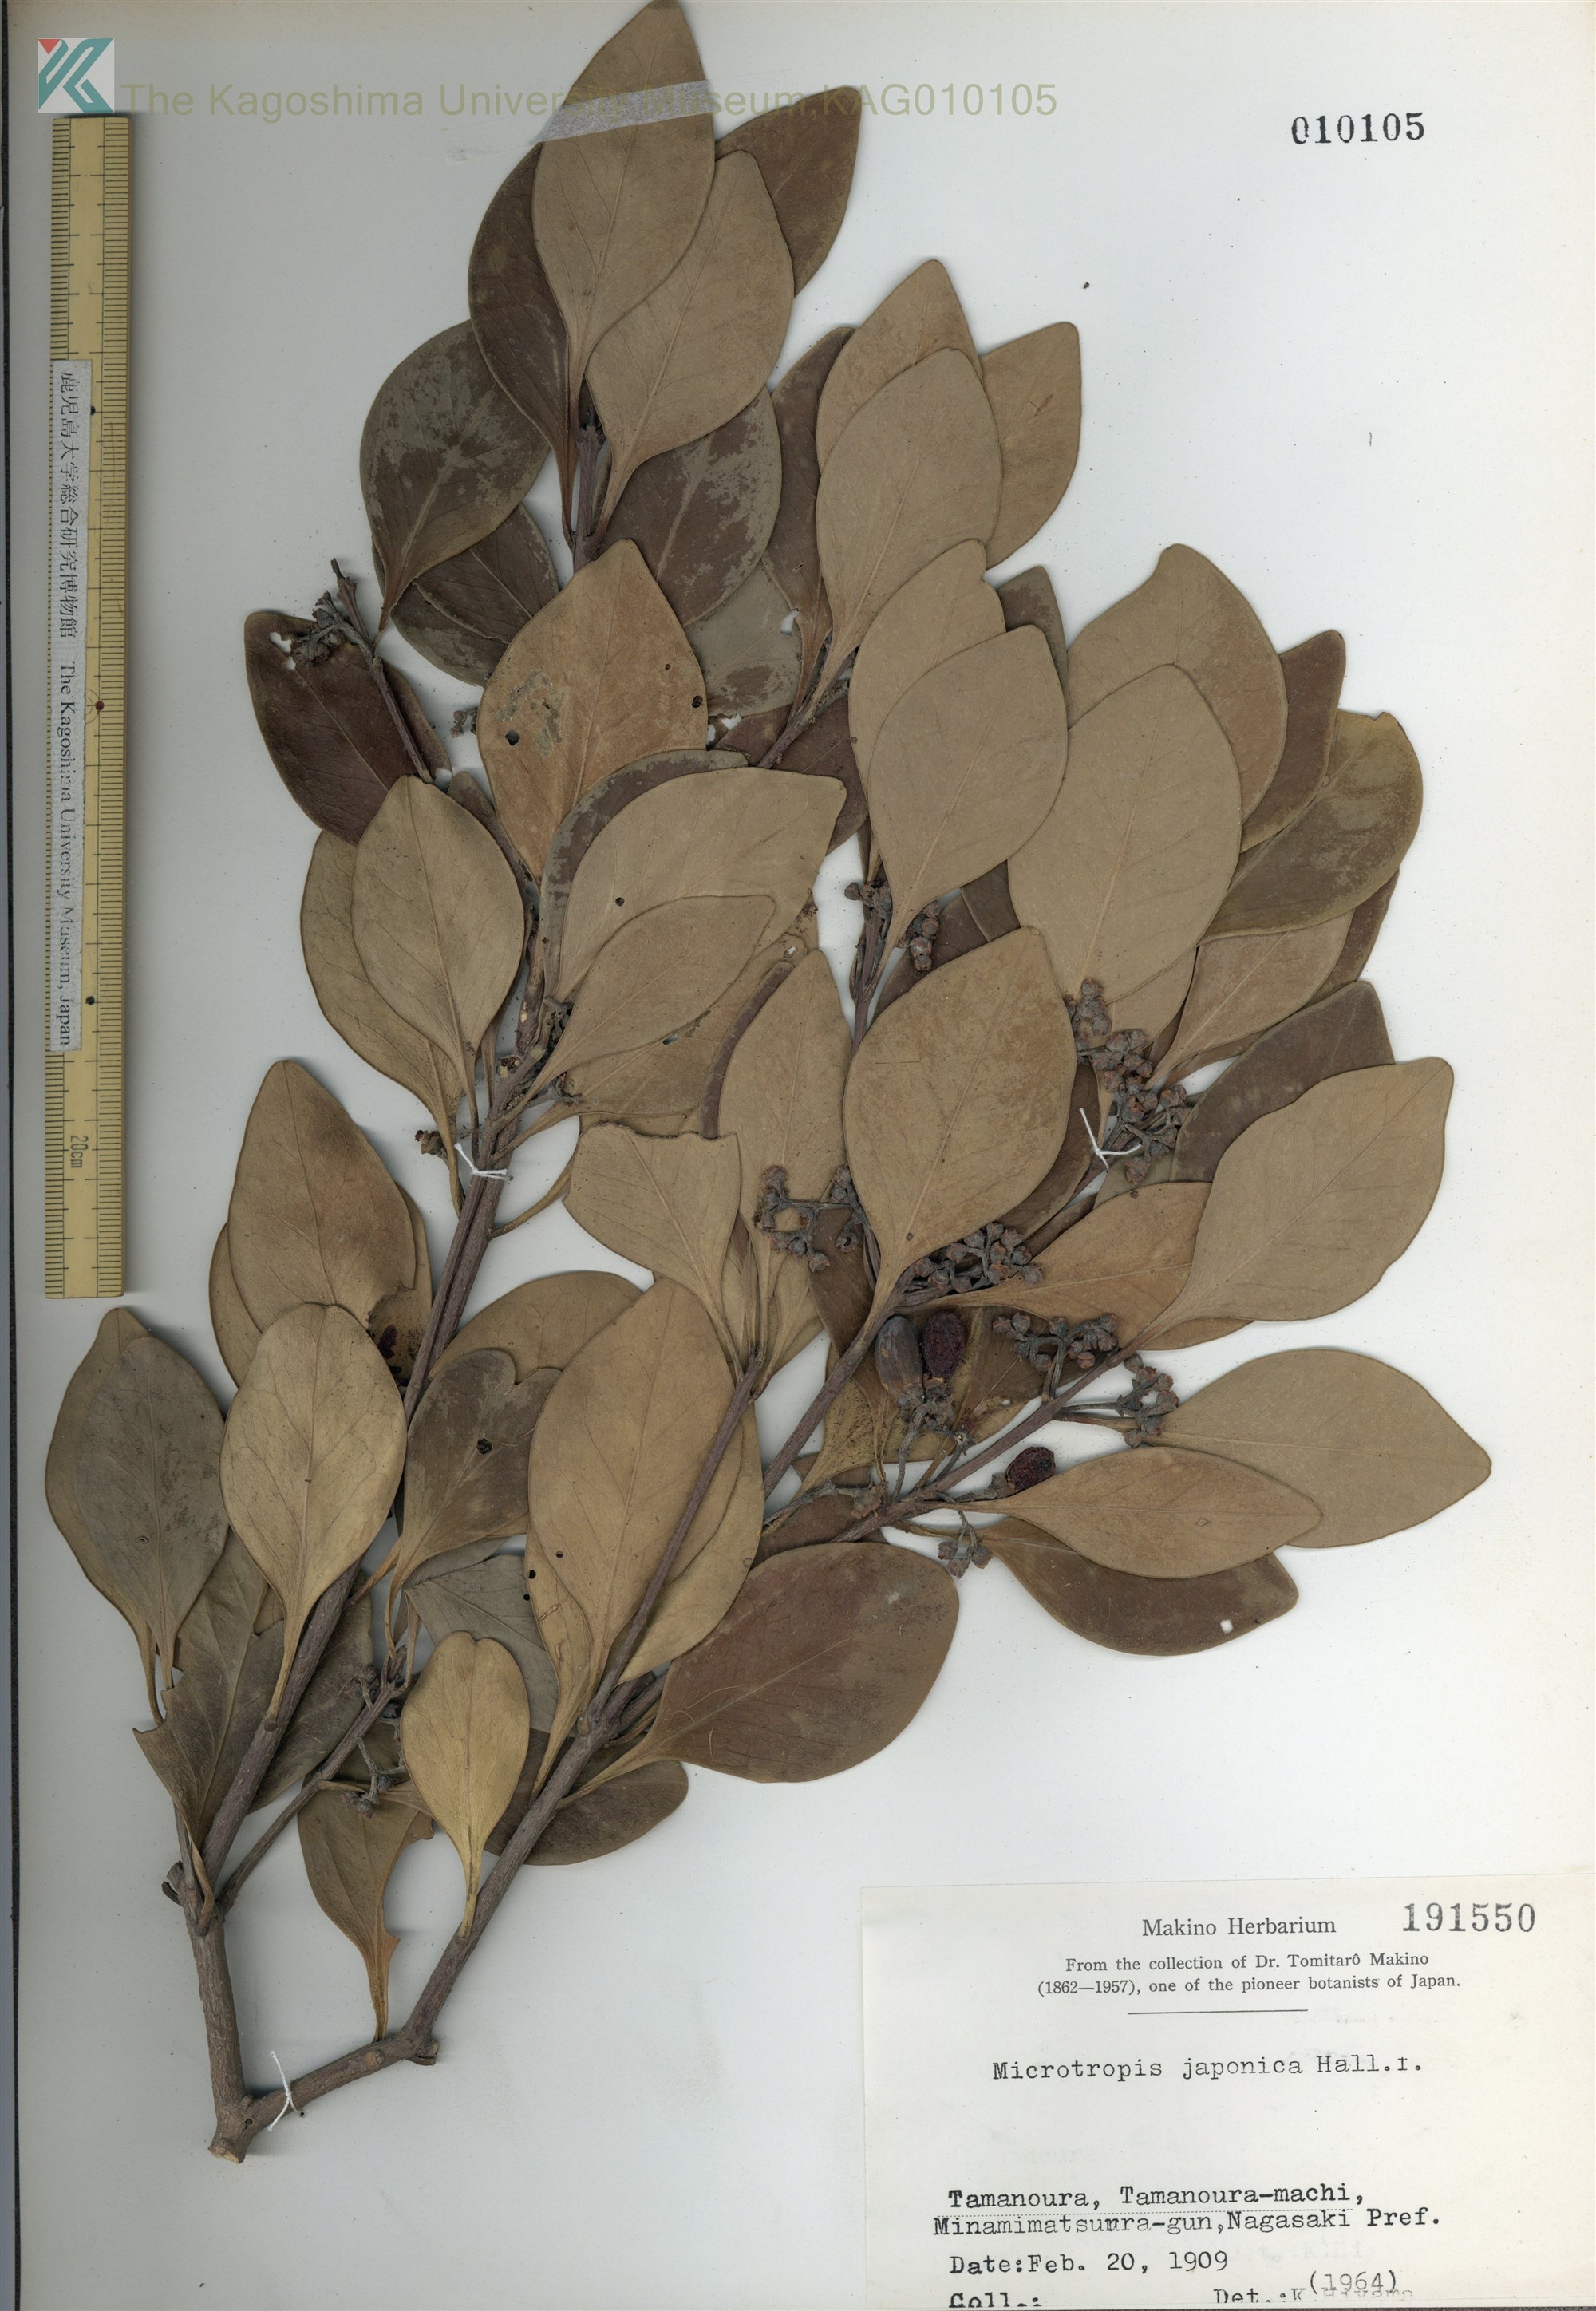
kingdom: Plantae
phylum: Tracheophyta
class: Magnoliopsida
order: Celastrales
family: Celastraceae
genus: Microtropis
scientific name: Microtropis japonica
